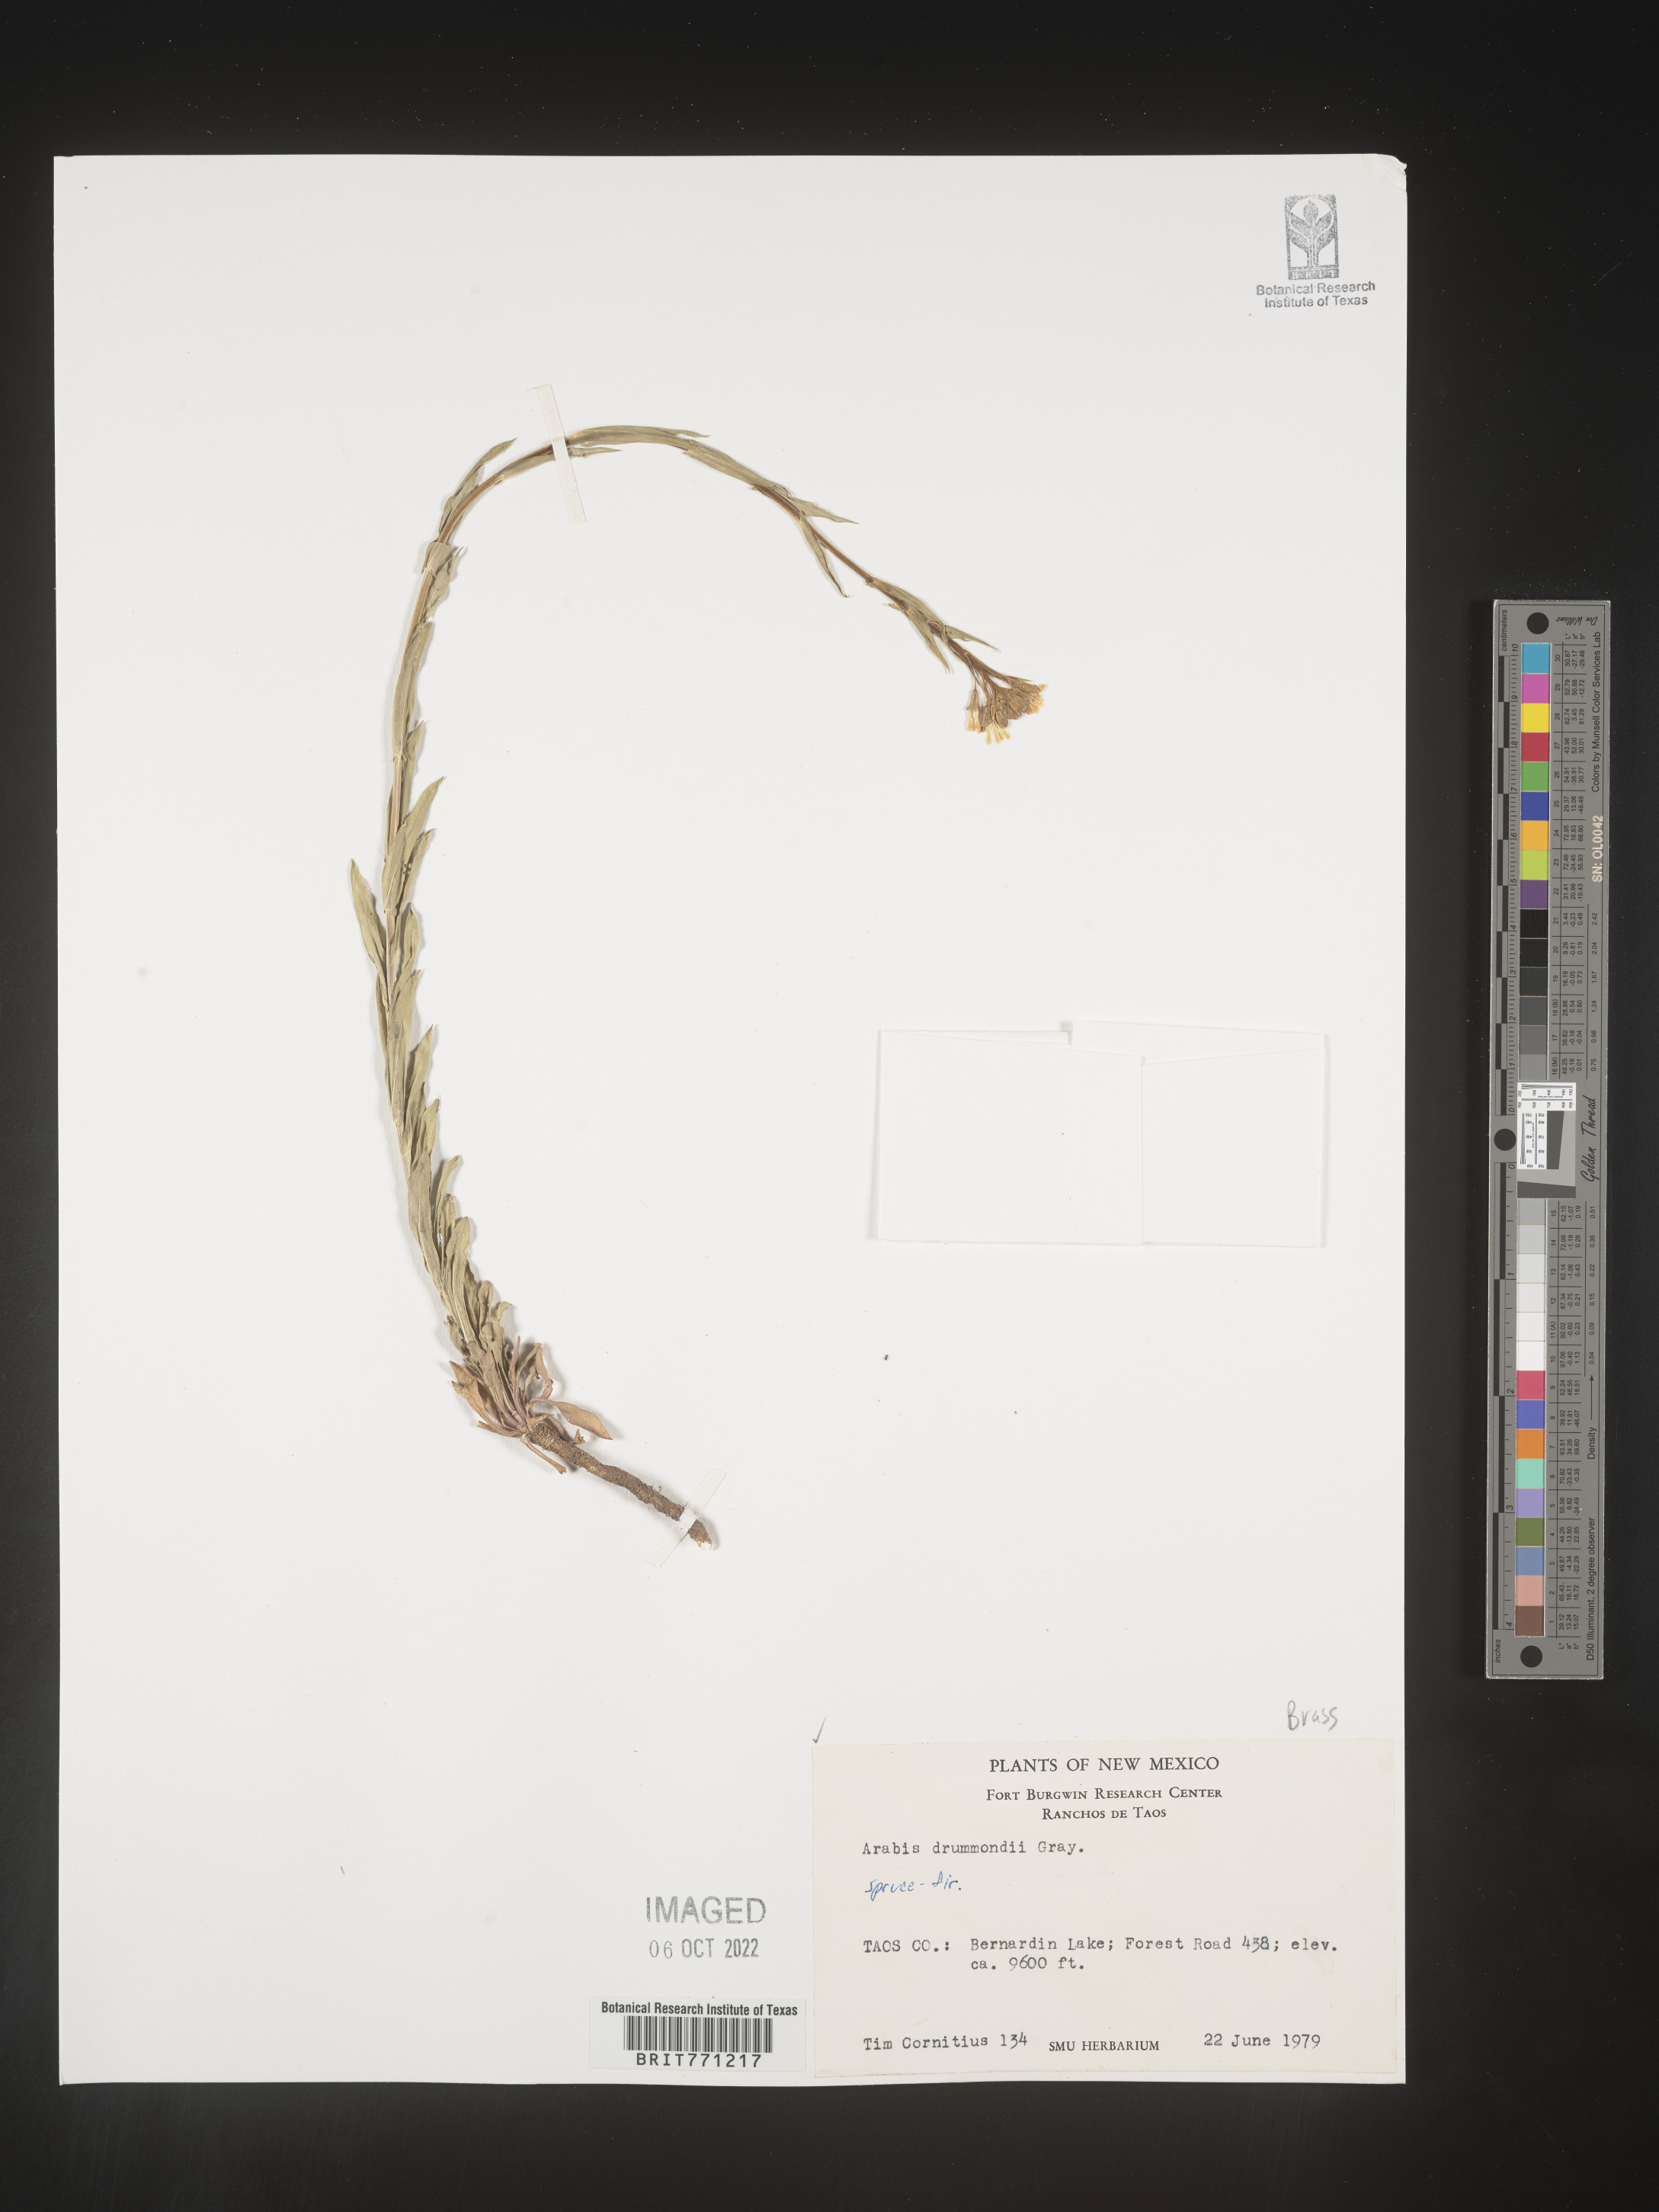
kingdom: Plantae
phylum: Tracheophyta
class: Magnoliopsida
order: Brassicales
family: Brassicaceae
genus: Boechera
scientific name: Boechera stricta
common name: Canadian rockcress
